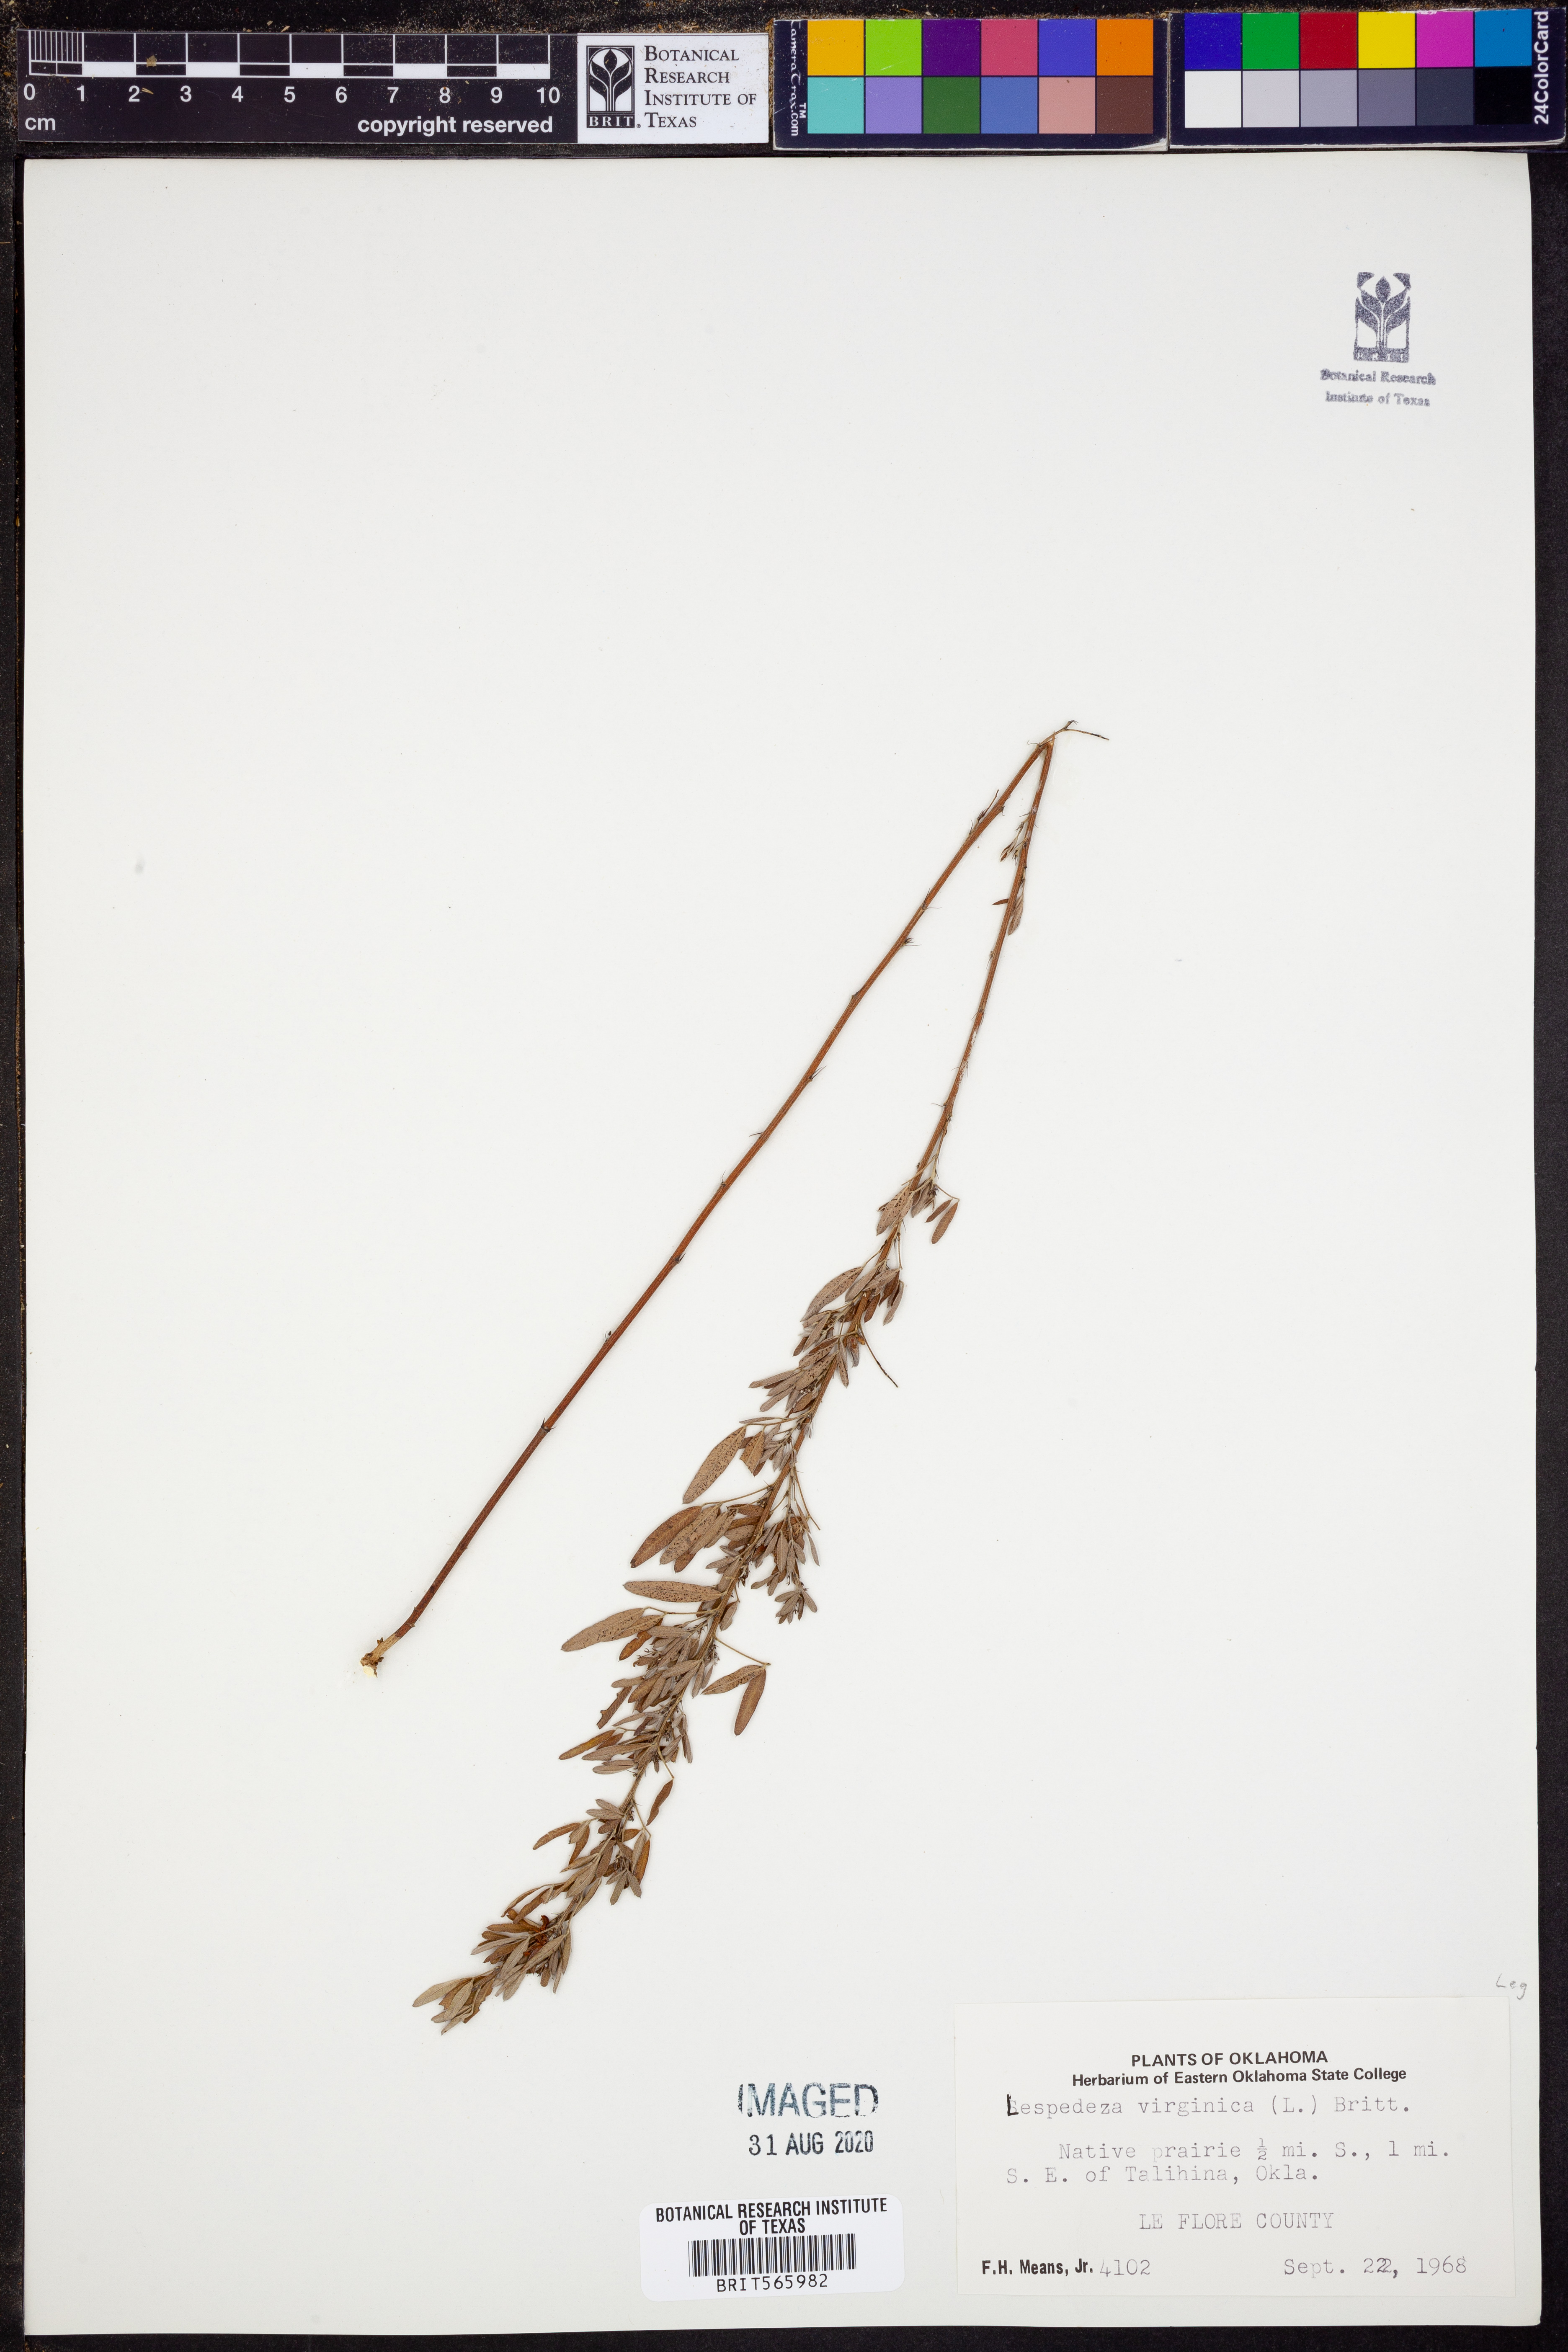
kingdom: Plantae
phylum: Tracheophyta
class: Magnoliopsida
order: Fabales
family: Fabaceae
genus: Lespedeza
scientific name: Lespedeza virginica
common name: Slender bush-clover
